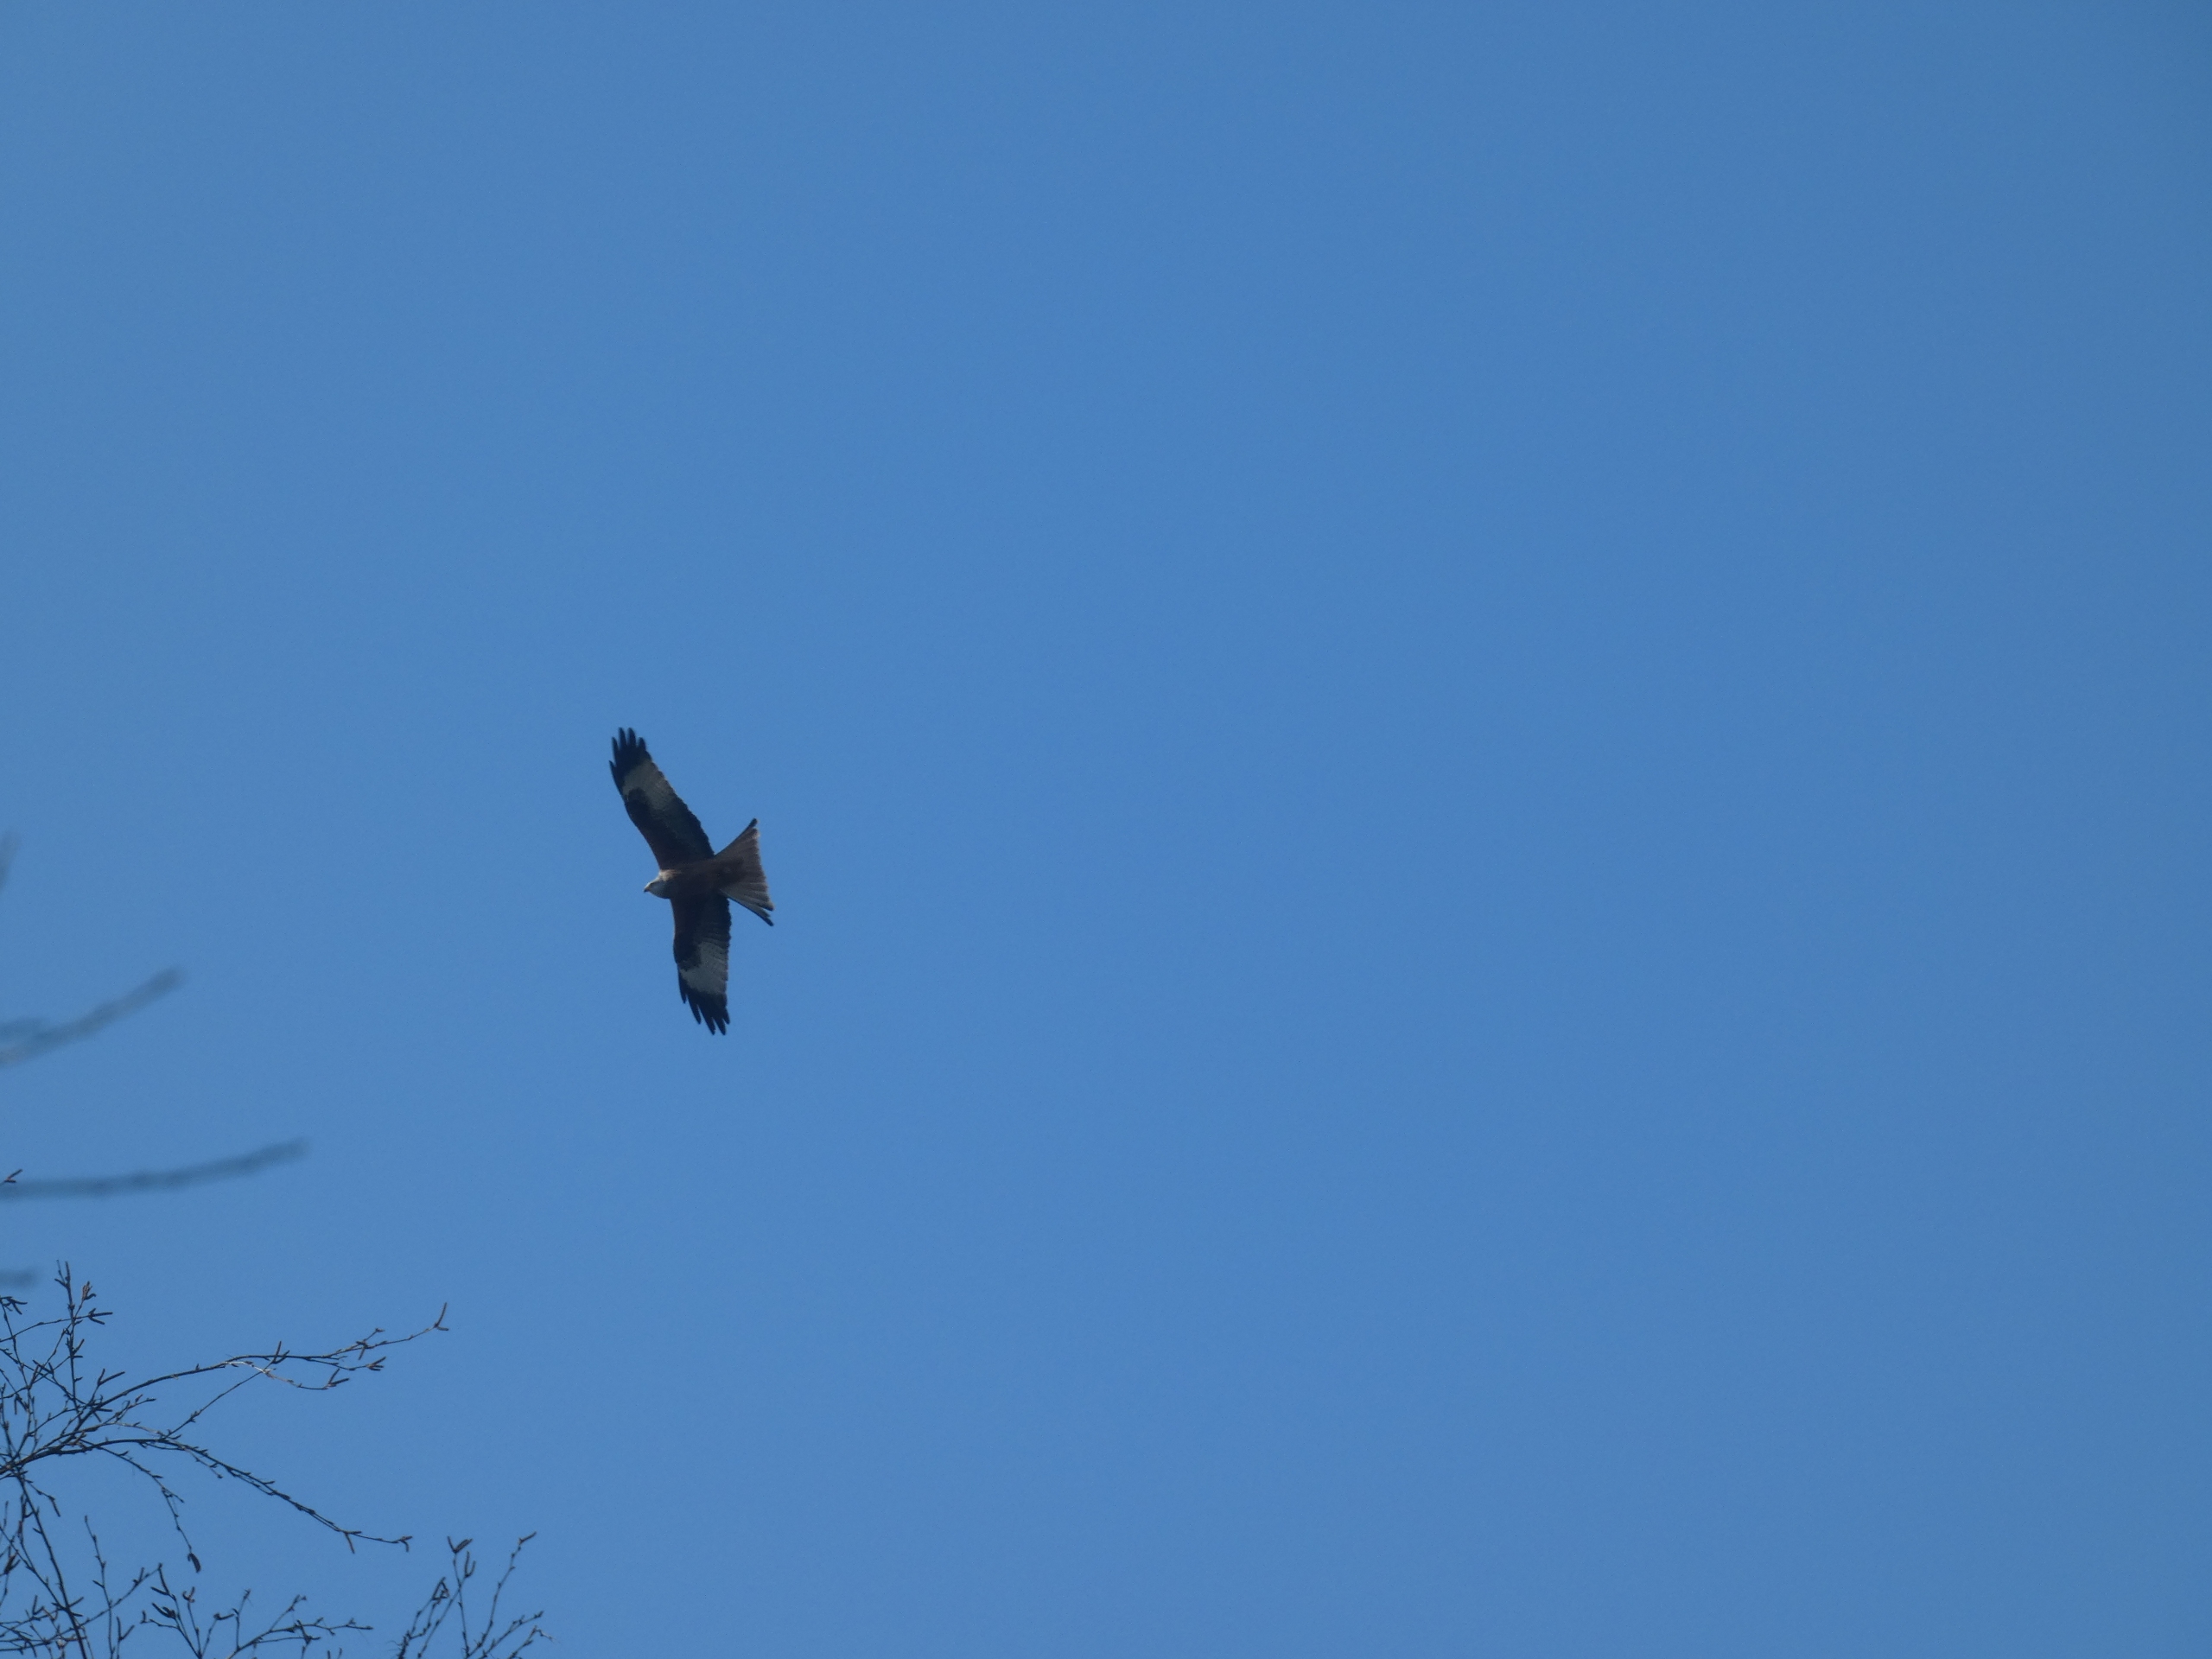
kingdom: Animalia
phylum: Chordata
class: Aves
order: Accipitriformes
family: Accipitridae
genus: Milvus
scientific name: Milvus milvus
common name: Rød glente
